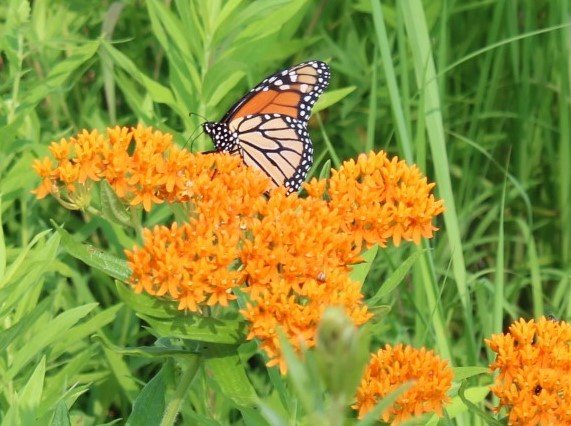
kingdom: Animalia
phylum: Arthropoda
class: Insecta
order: Lepidoptera
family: Nymphalidae
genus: Danaus
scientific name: Danaus plexippus
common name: Monarch
